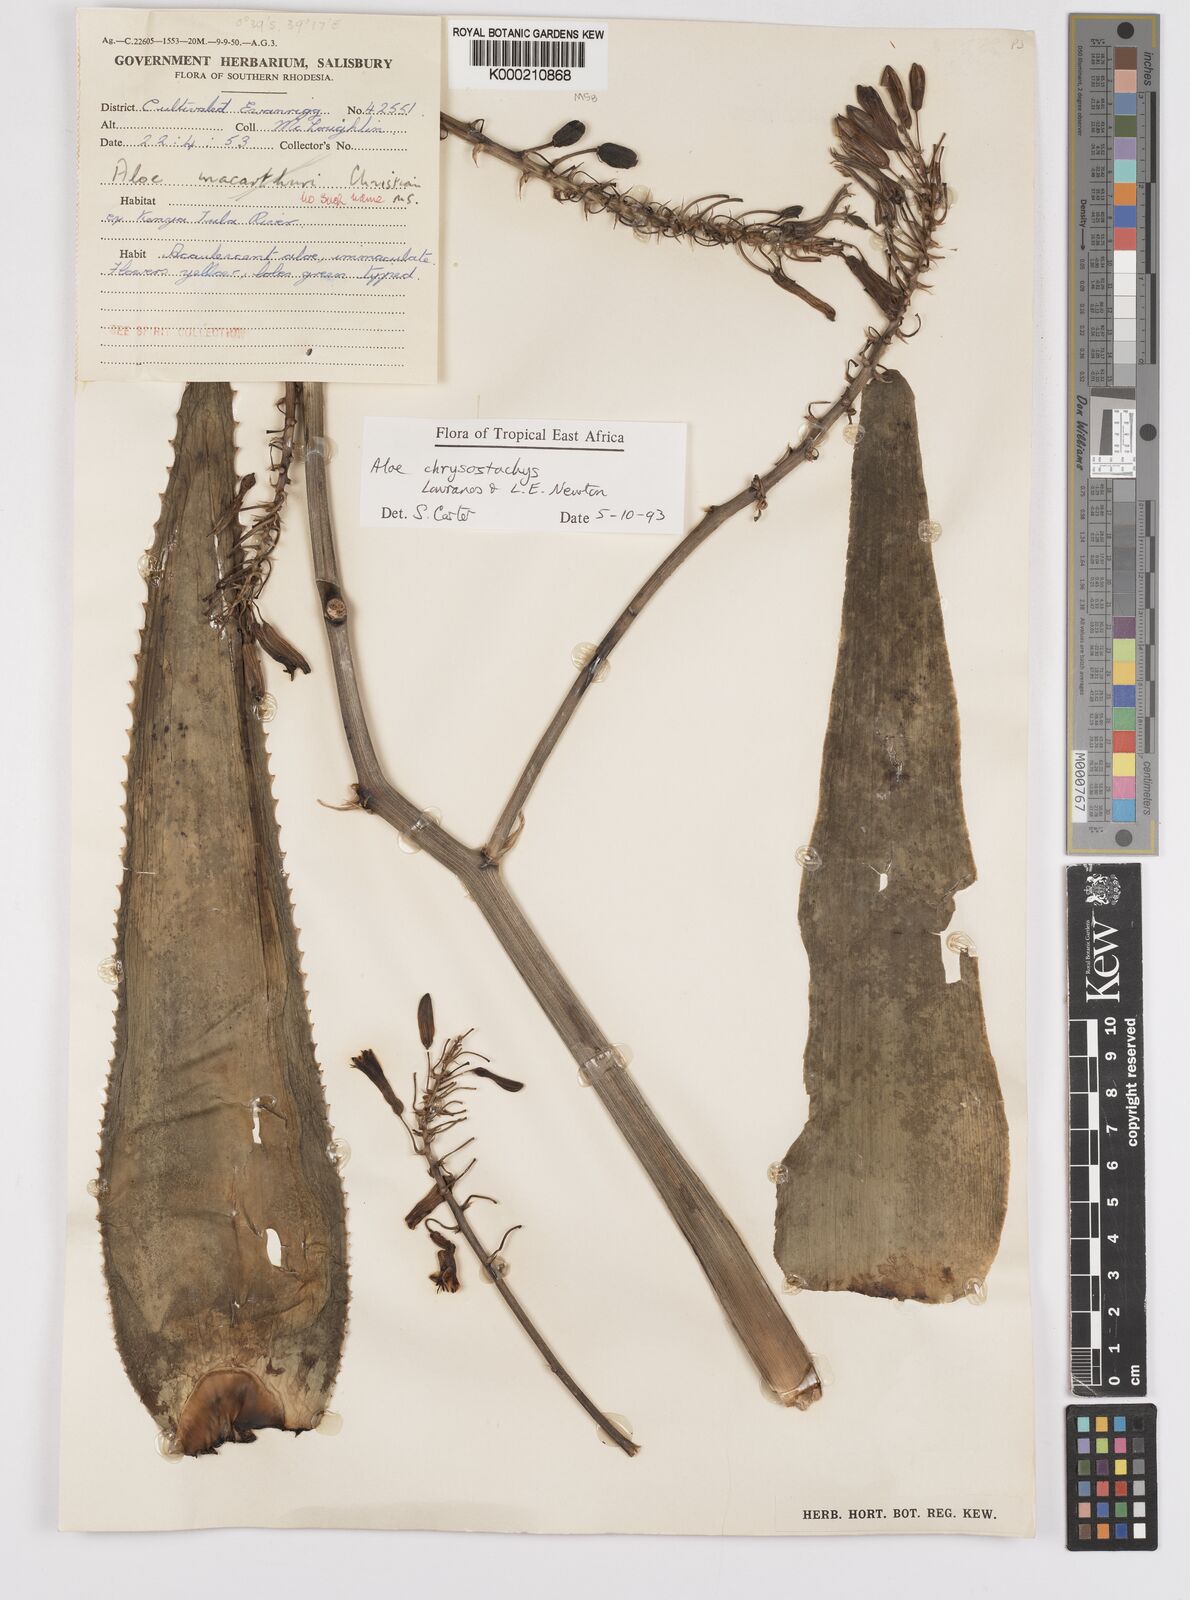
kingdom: Plantae
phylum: Tracheophyta
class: Liliopsida
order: Asparagales
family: Asphodelaceae
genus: Aloe
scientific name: Aloe aageodonta
